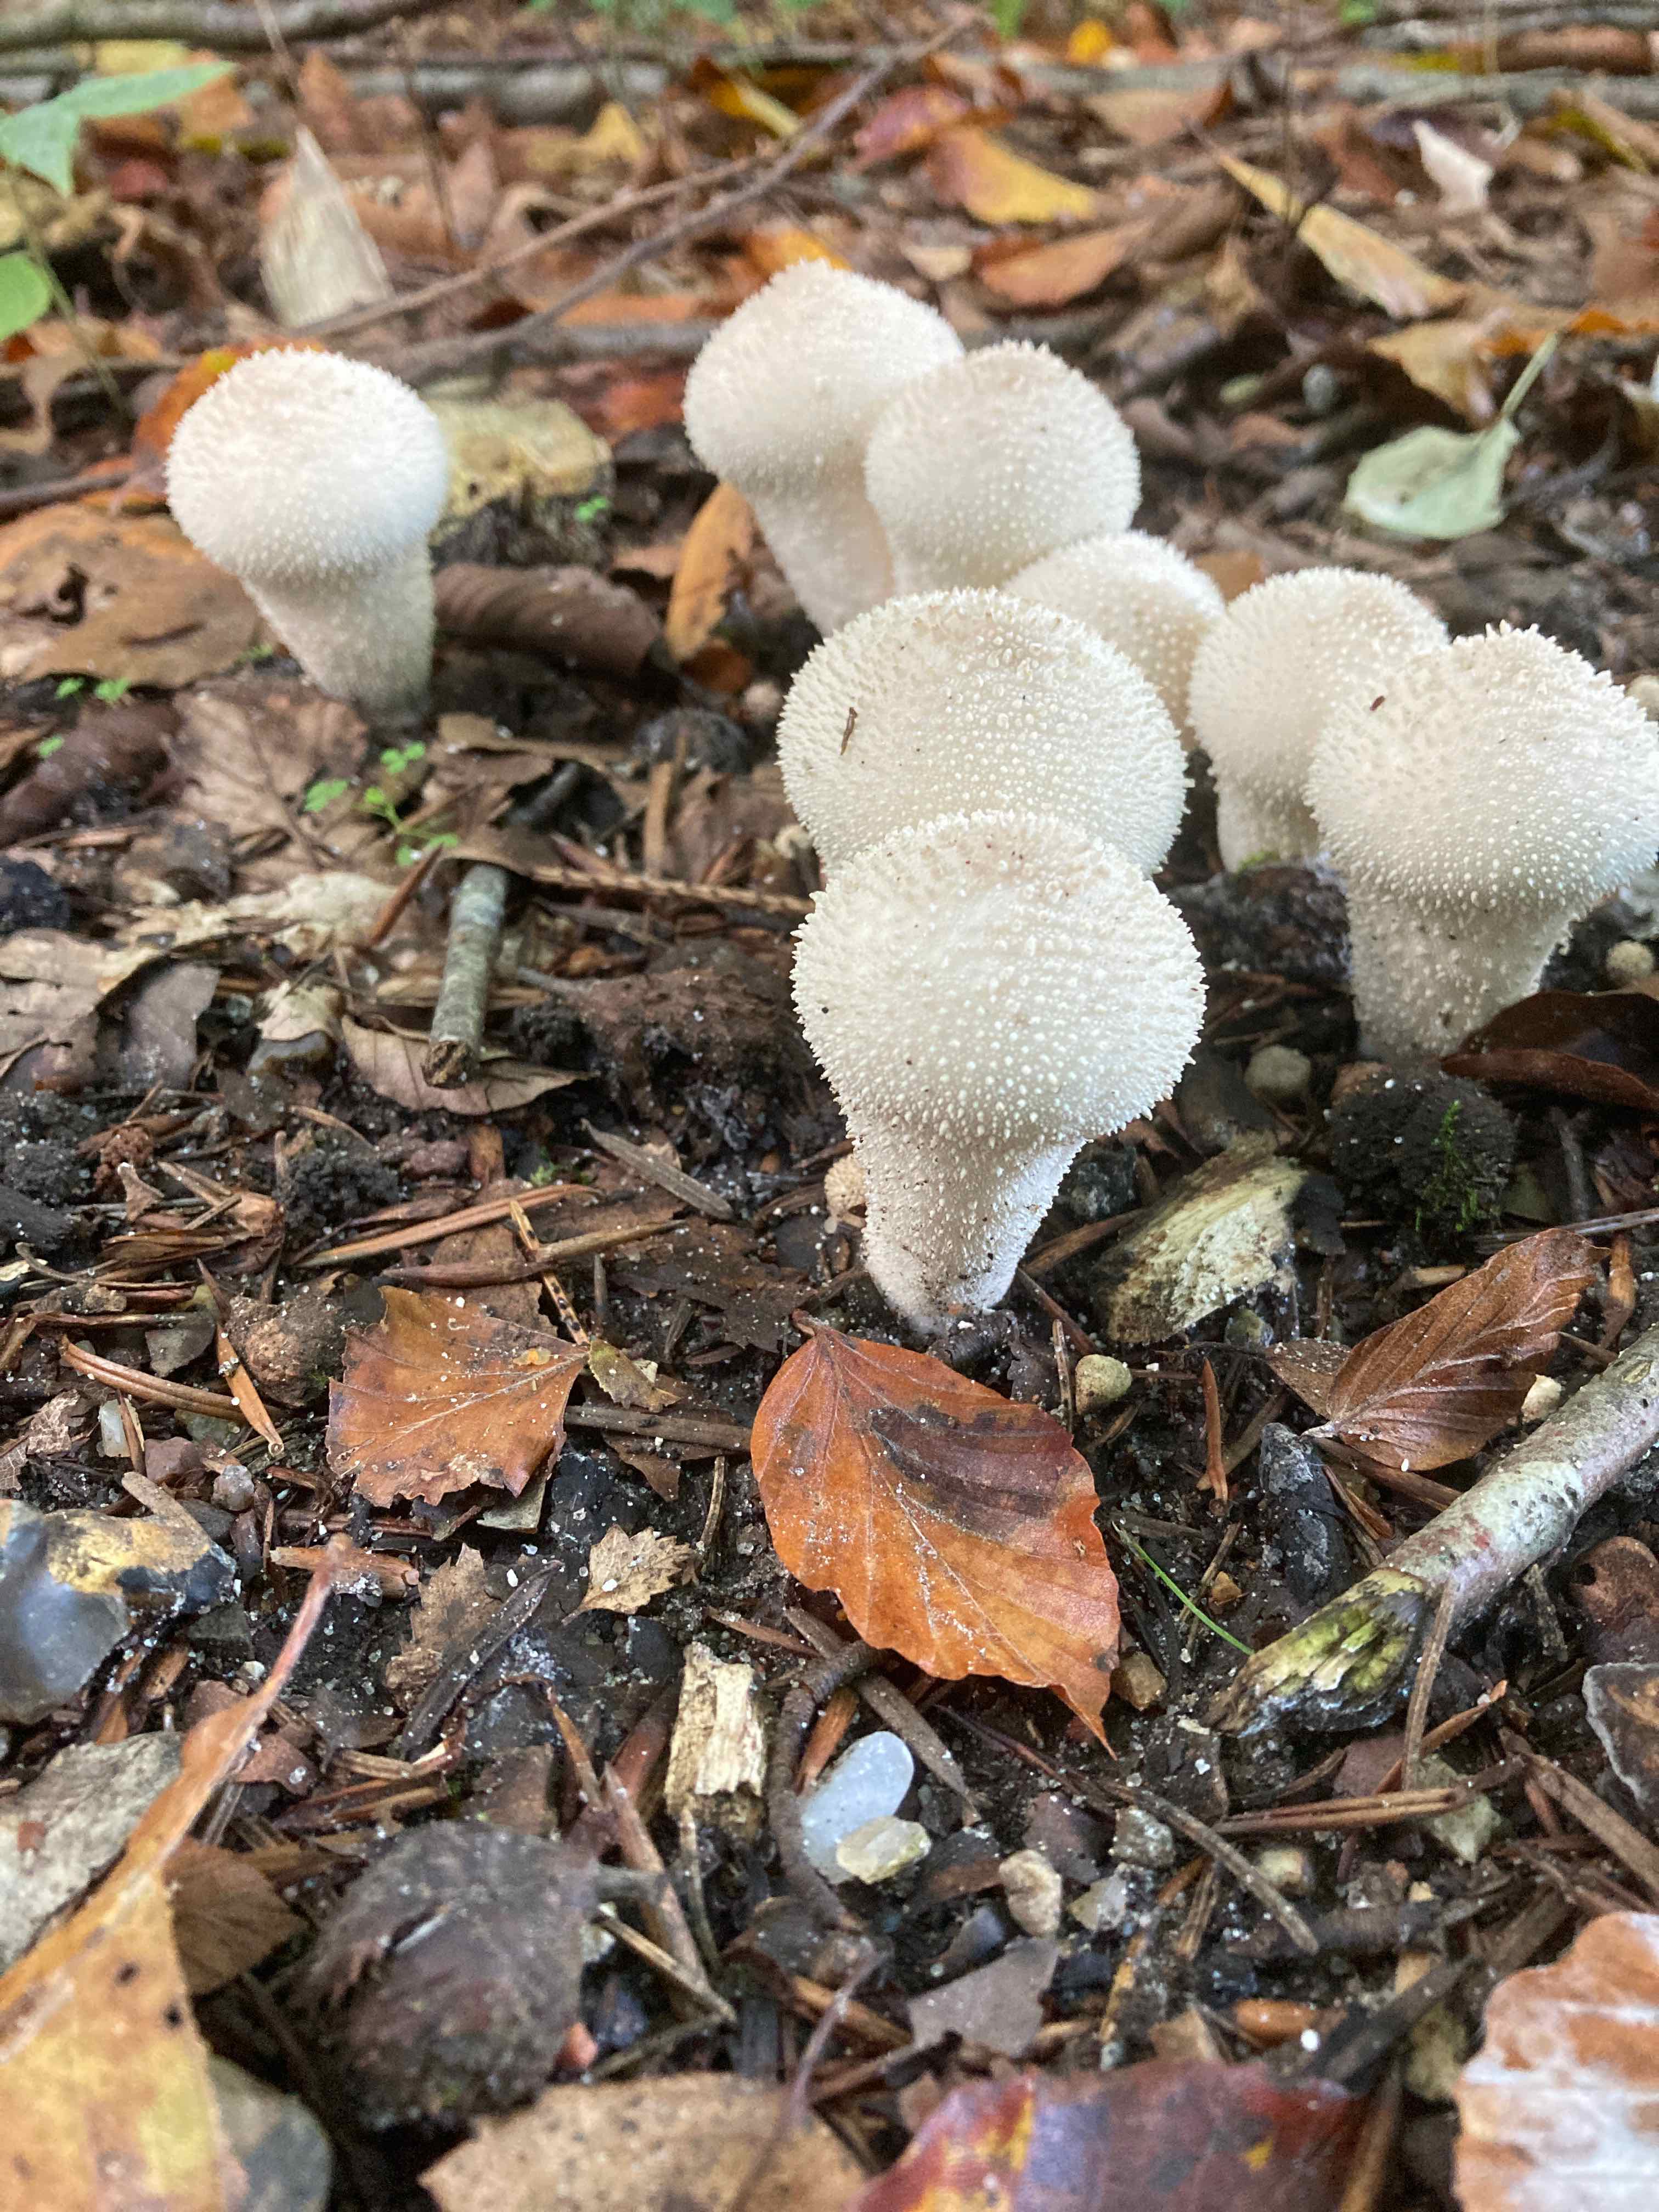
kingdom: Fungi
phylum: Basidiomycota
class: Agaricomycetes
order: Agaricales
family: Lycoperdaceae
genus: Lycoperdon
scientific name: Lycoperdon perlatum
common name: krystal-støvbold
